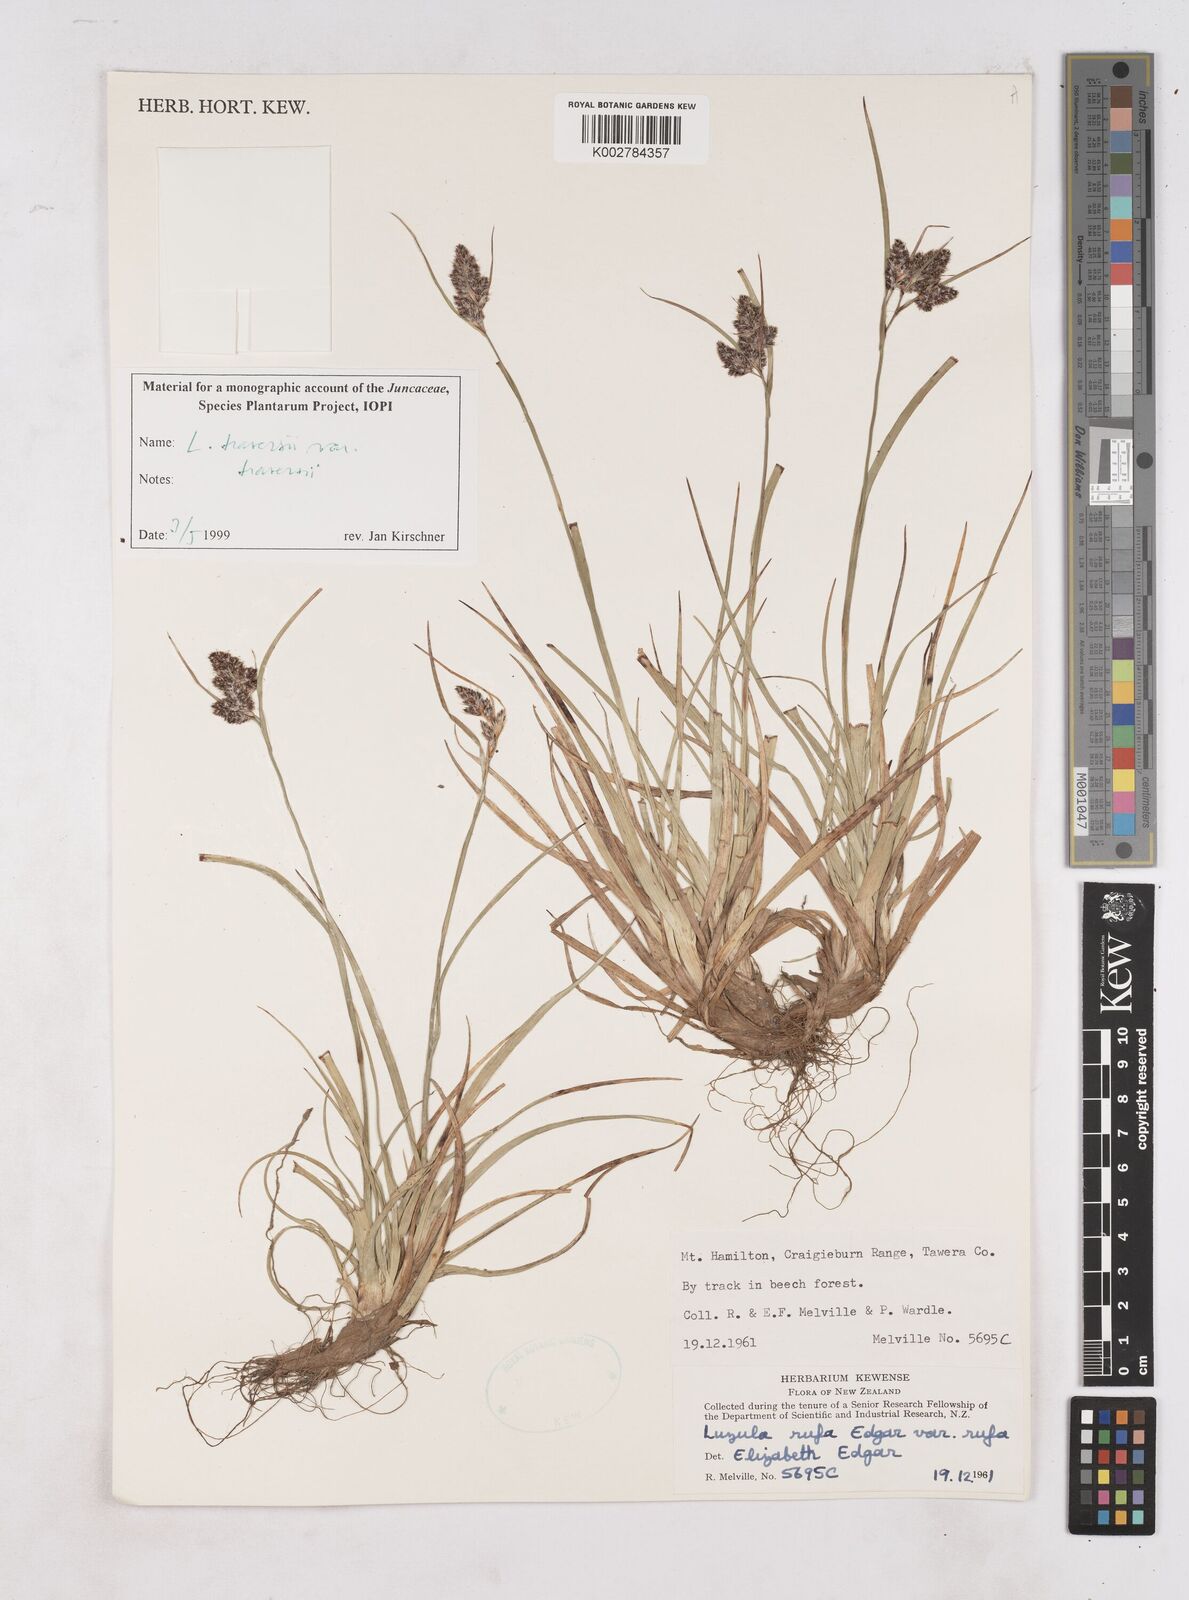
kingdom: Plantae
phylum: Tracheophyta
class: Liliopsida
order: Poales
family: Juncaceae
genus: Luzula
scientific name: Luzula traversii
